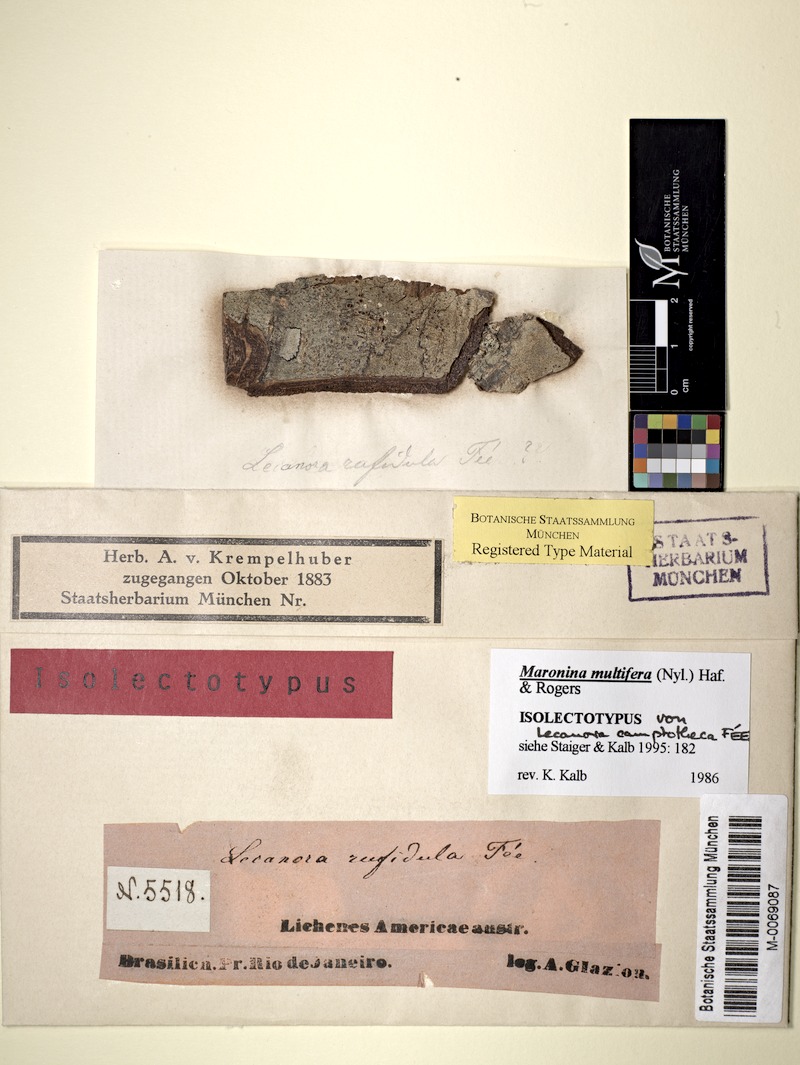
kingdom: Fungi
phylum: Ascomycota
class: Lecanoromycetes
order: Lecanorales
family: Parmeliaceae
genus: Neoprotoparmelia
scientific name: Neoprotoparmelia camptotheca
